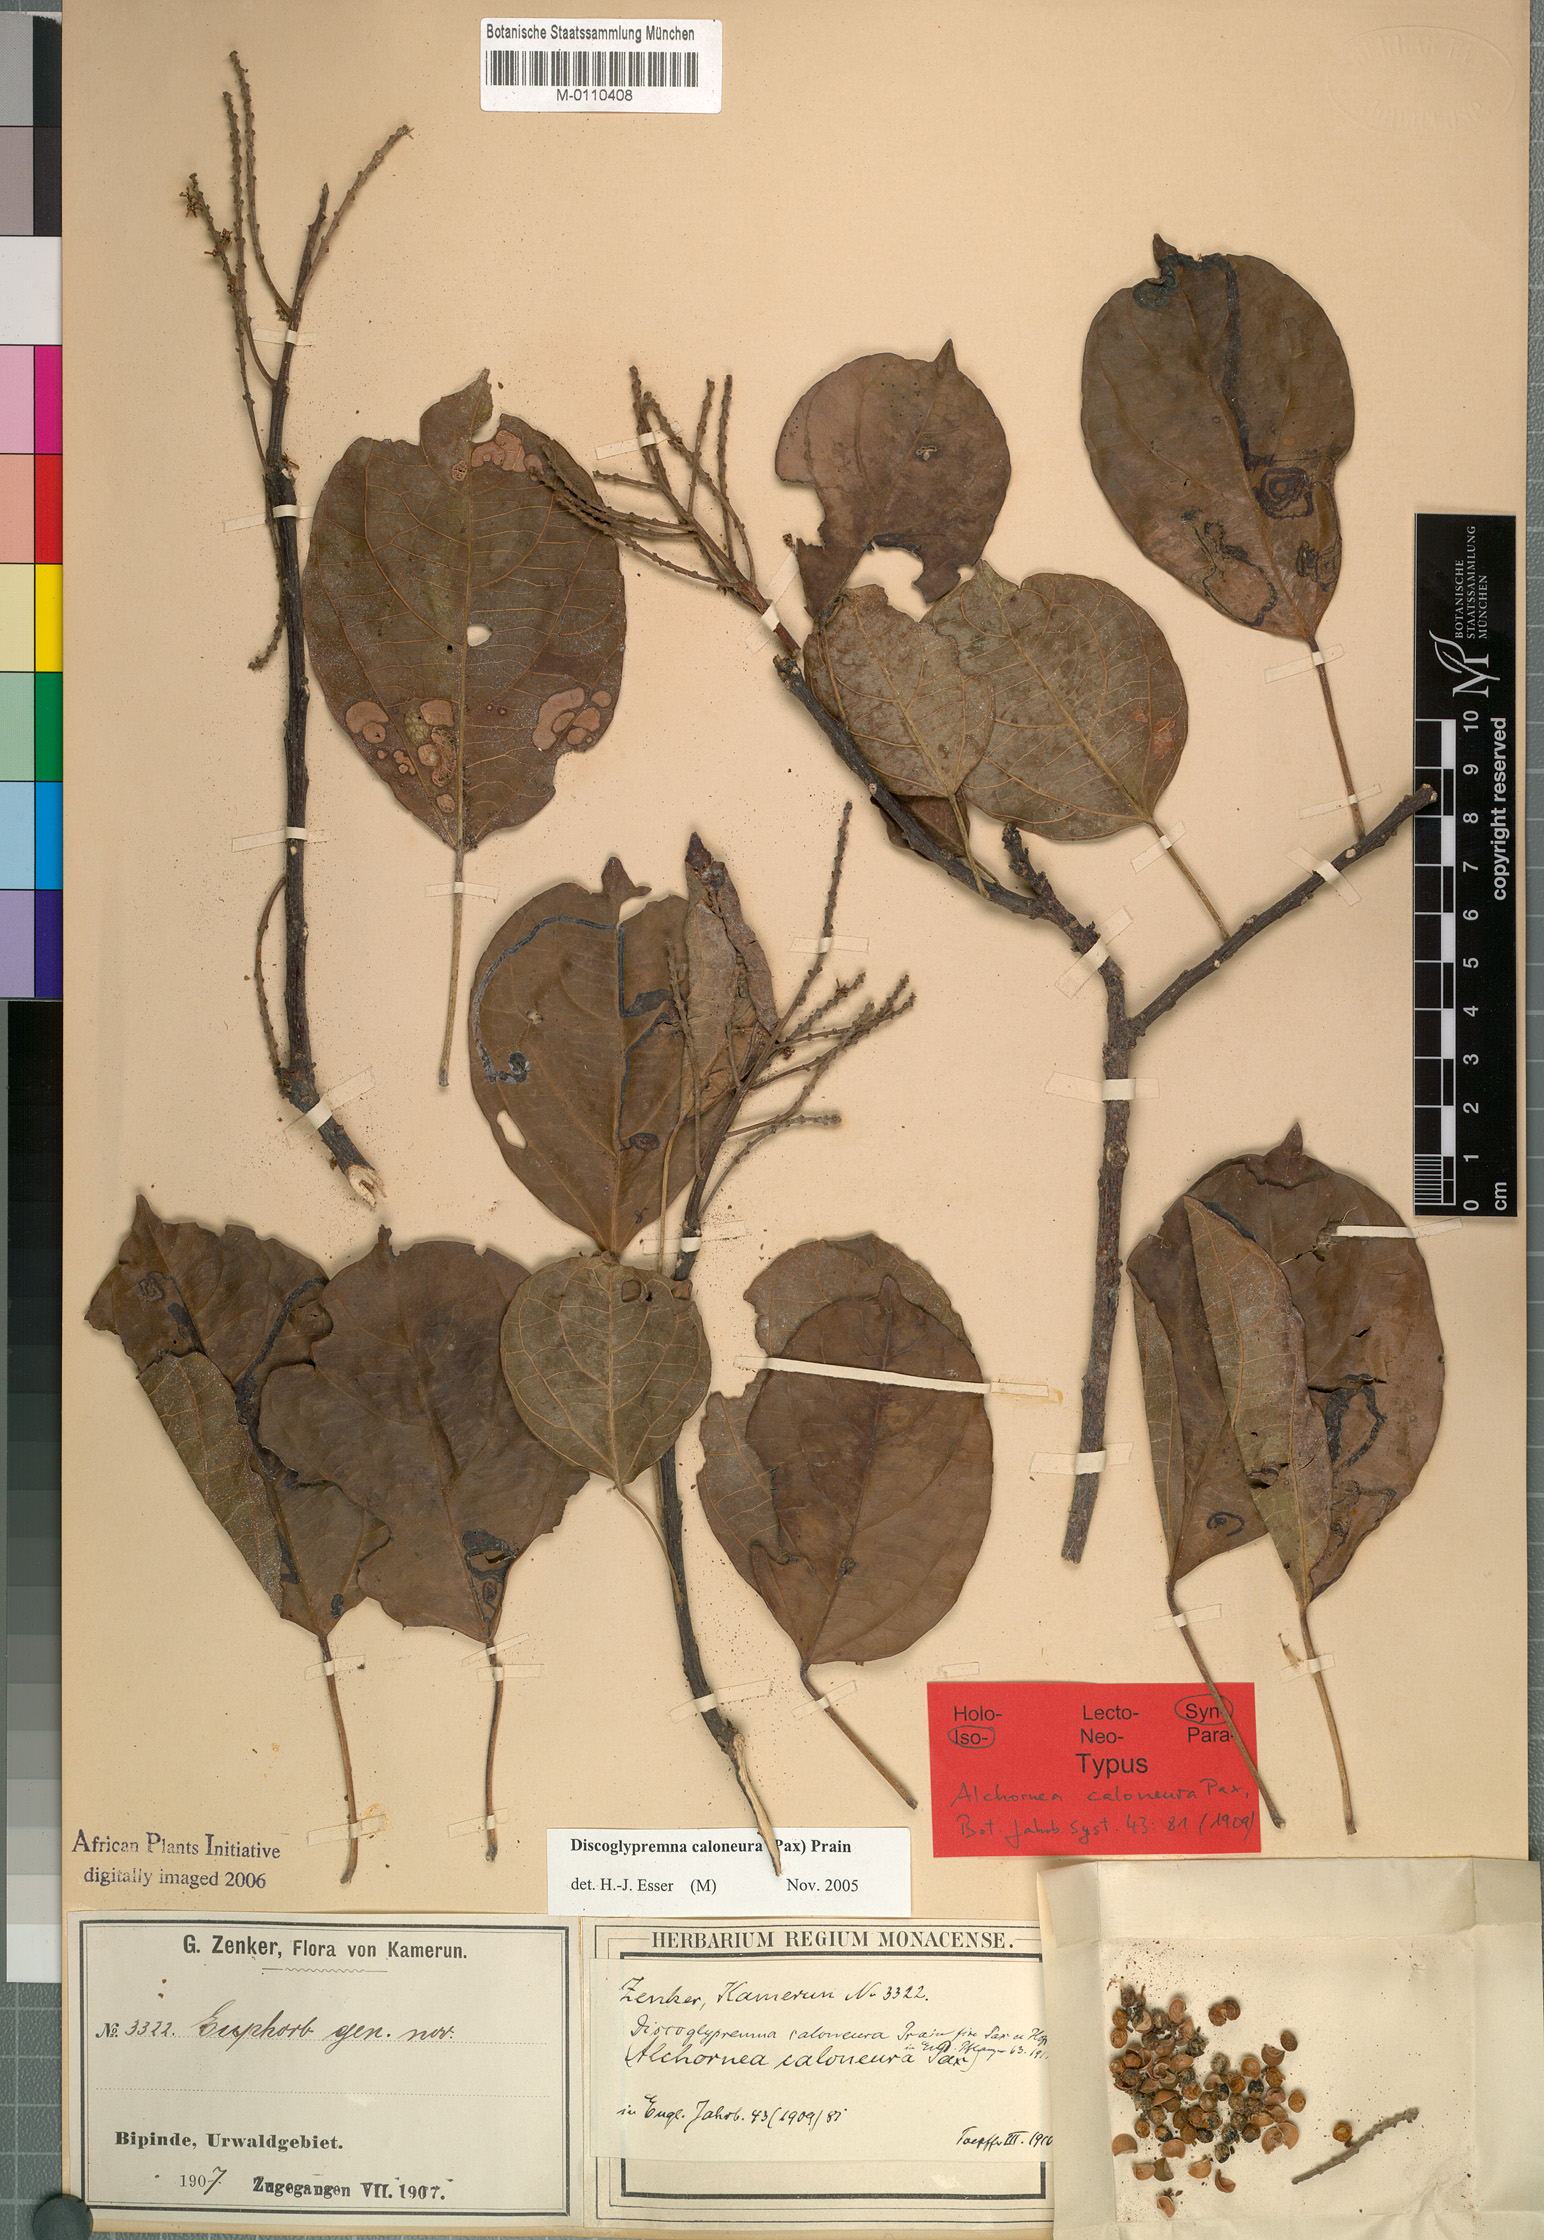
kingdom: Plantae
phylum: Tracheophyta
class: Magnoliopsida
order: Malpighiales
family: Euphorbiaceae
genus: Discoglypremna
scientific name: Discoglypremna caloneura
